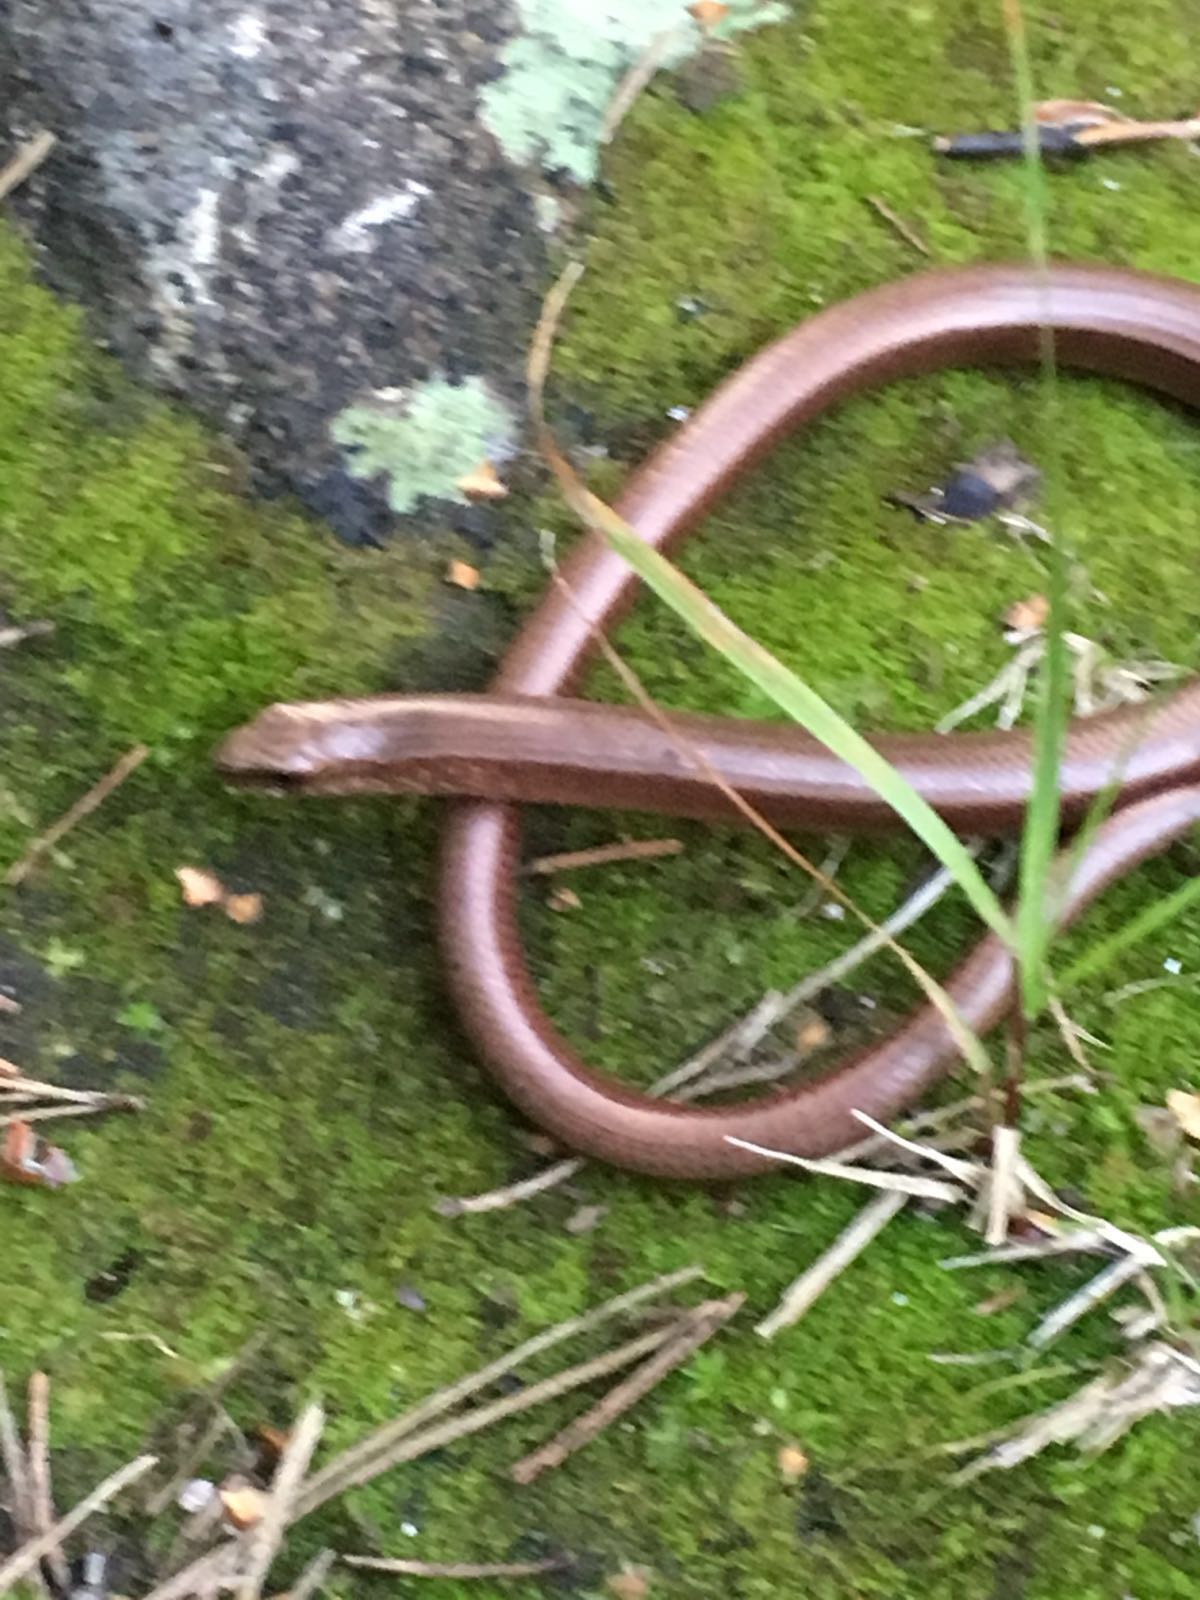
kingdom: Animalia
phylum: Chordata
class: Squamata
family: Anguidae
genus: Anguis
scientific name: Anguis colchica
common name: Slow worm
